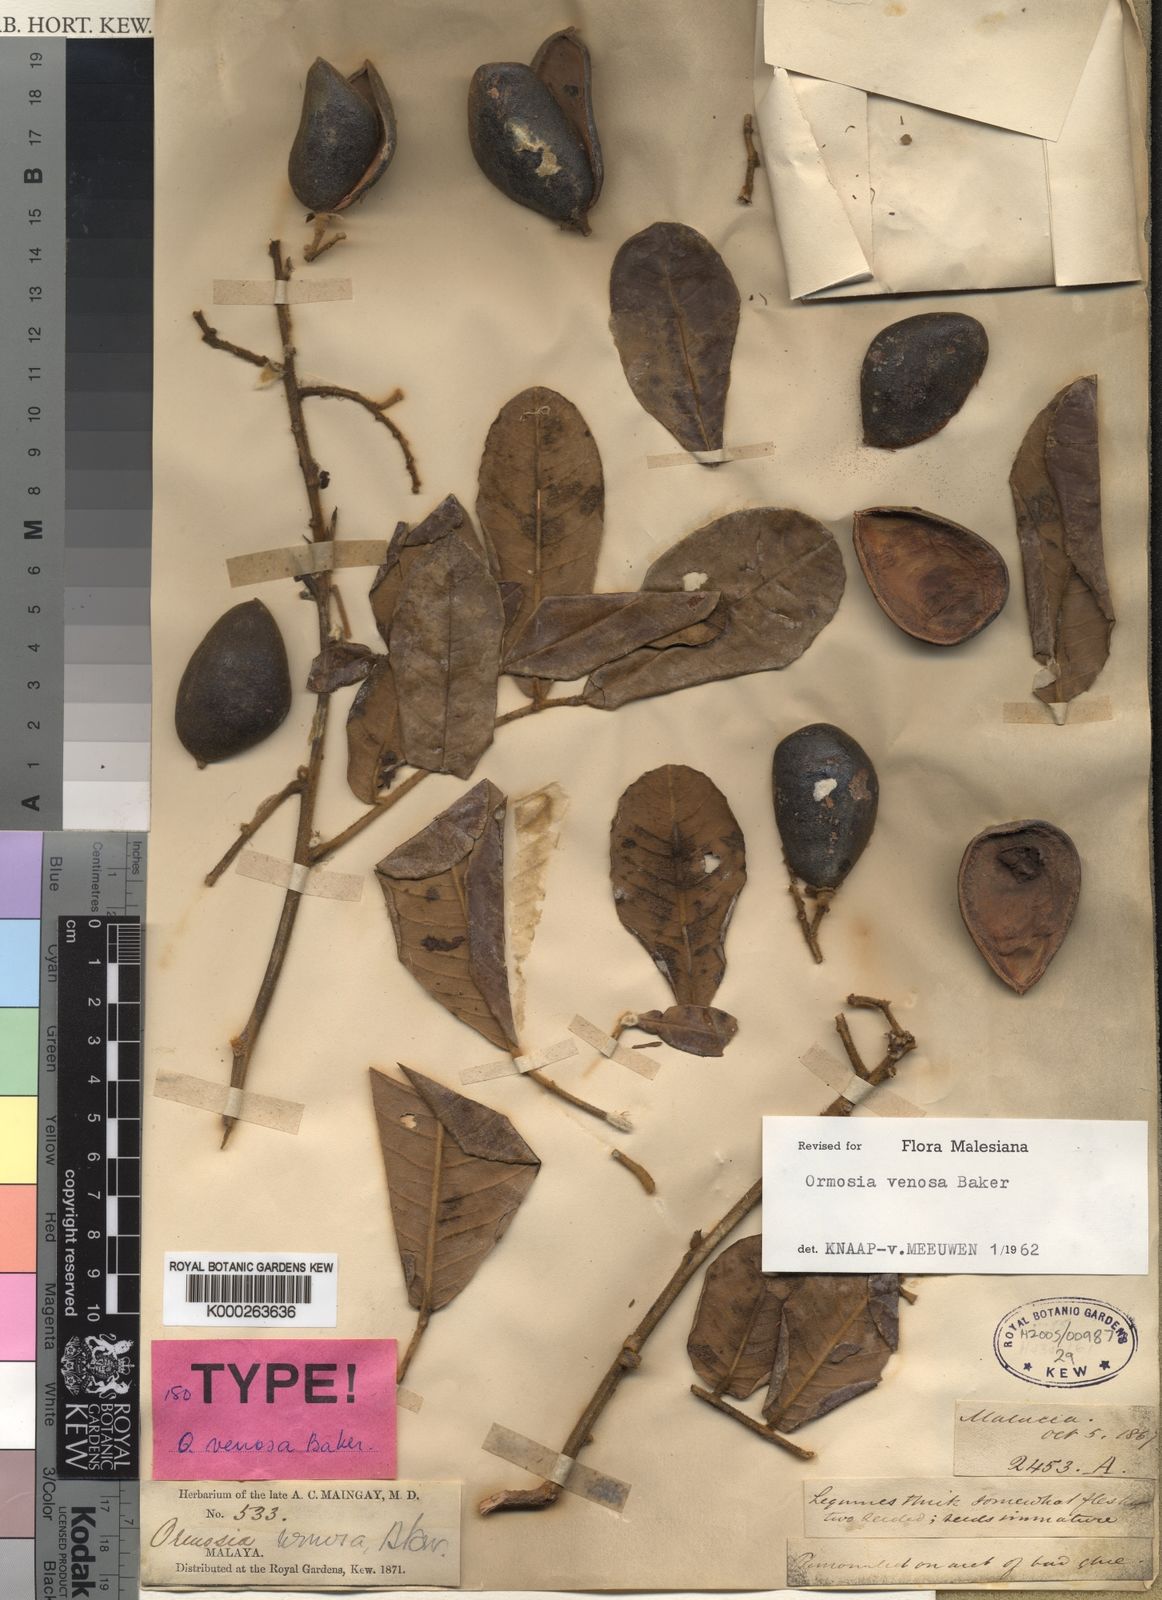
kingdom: Plantae
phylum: Tracheophyta
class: Magnoliopsida
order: Fabales
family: Fabaceae
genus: Ormosia
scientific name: Ormosia venosa
